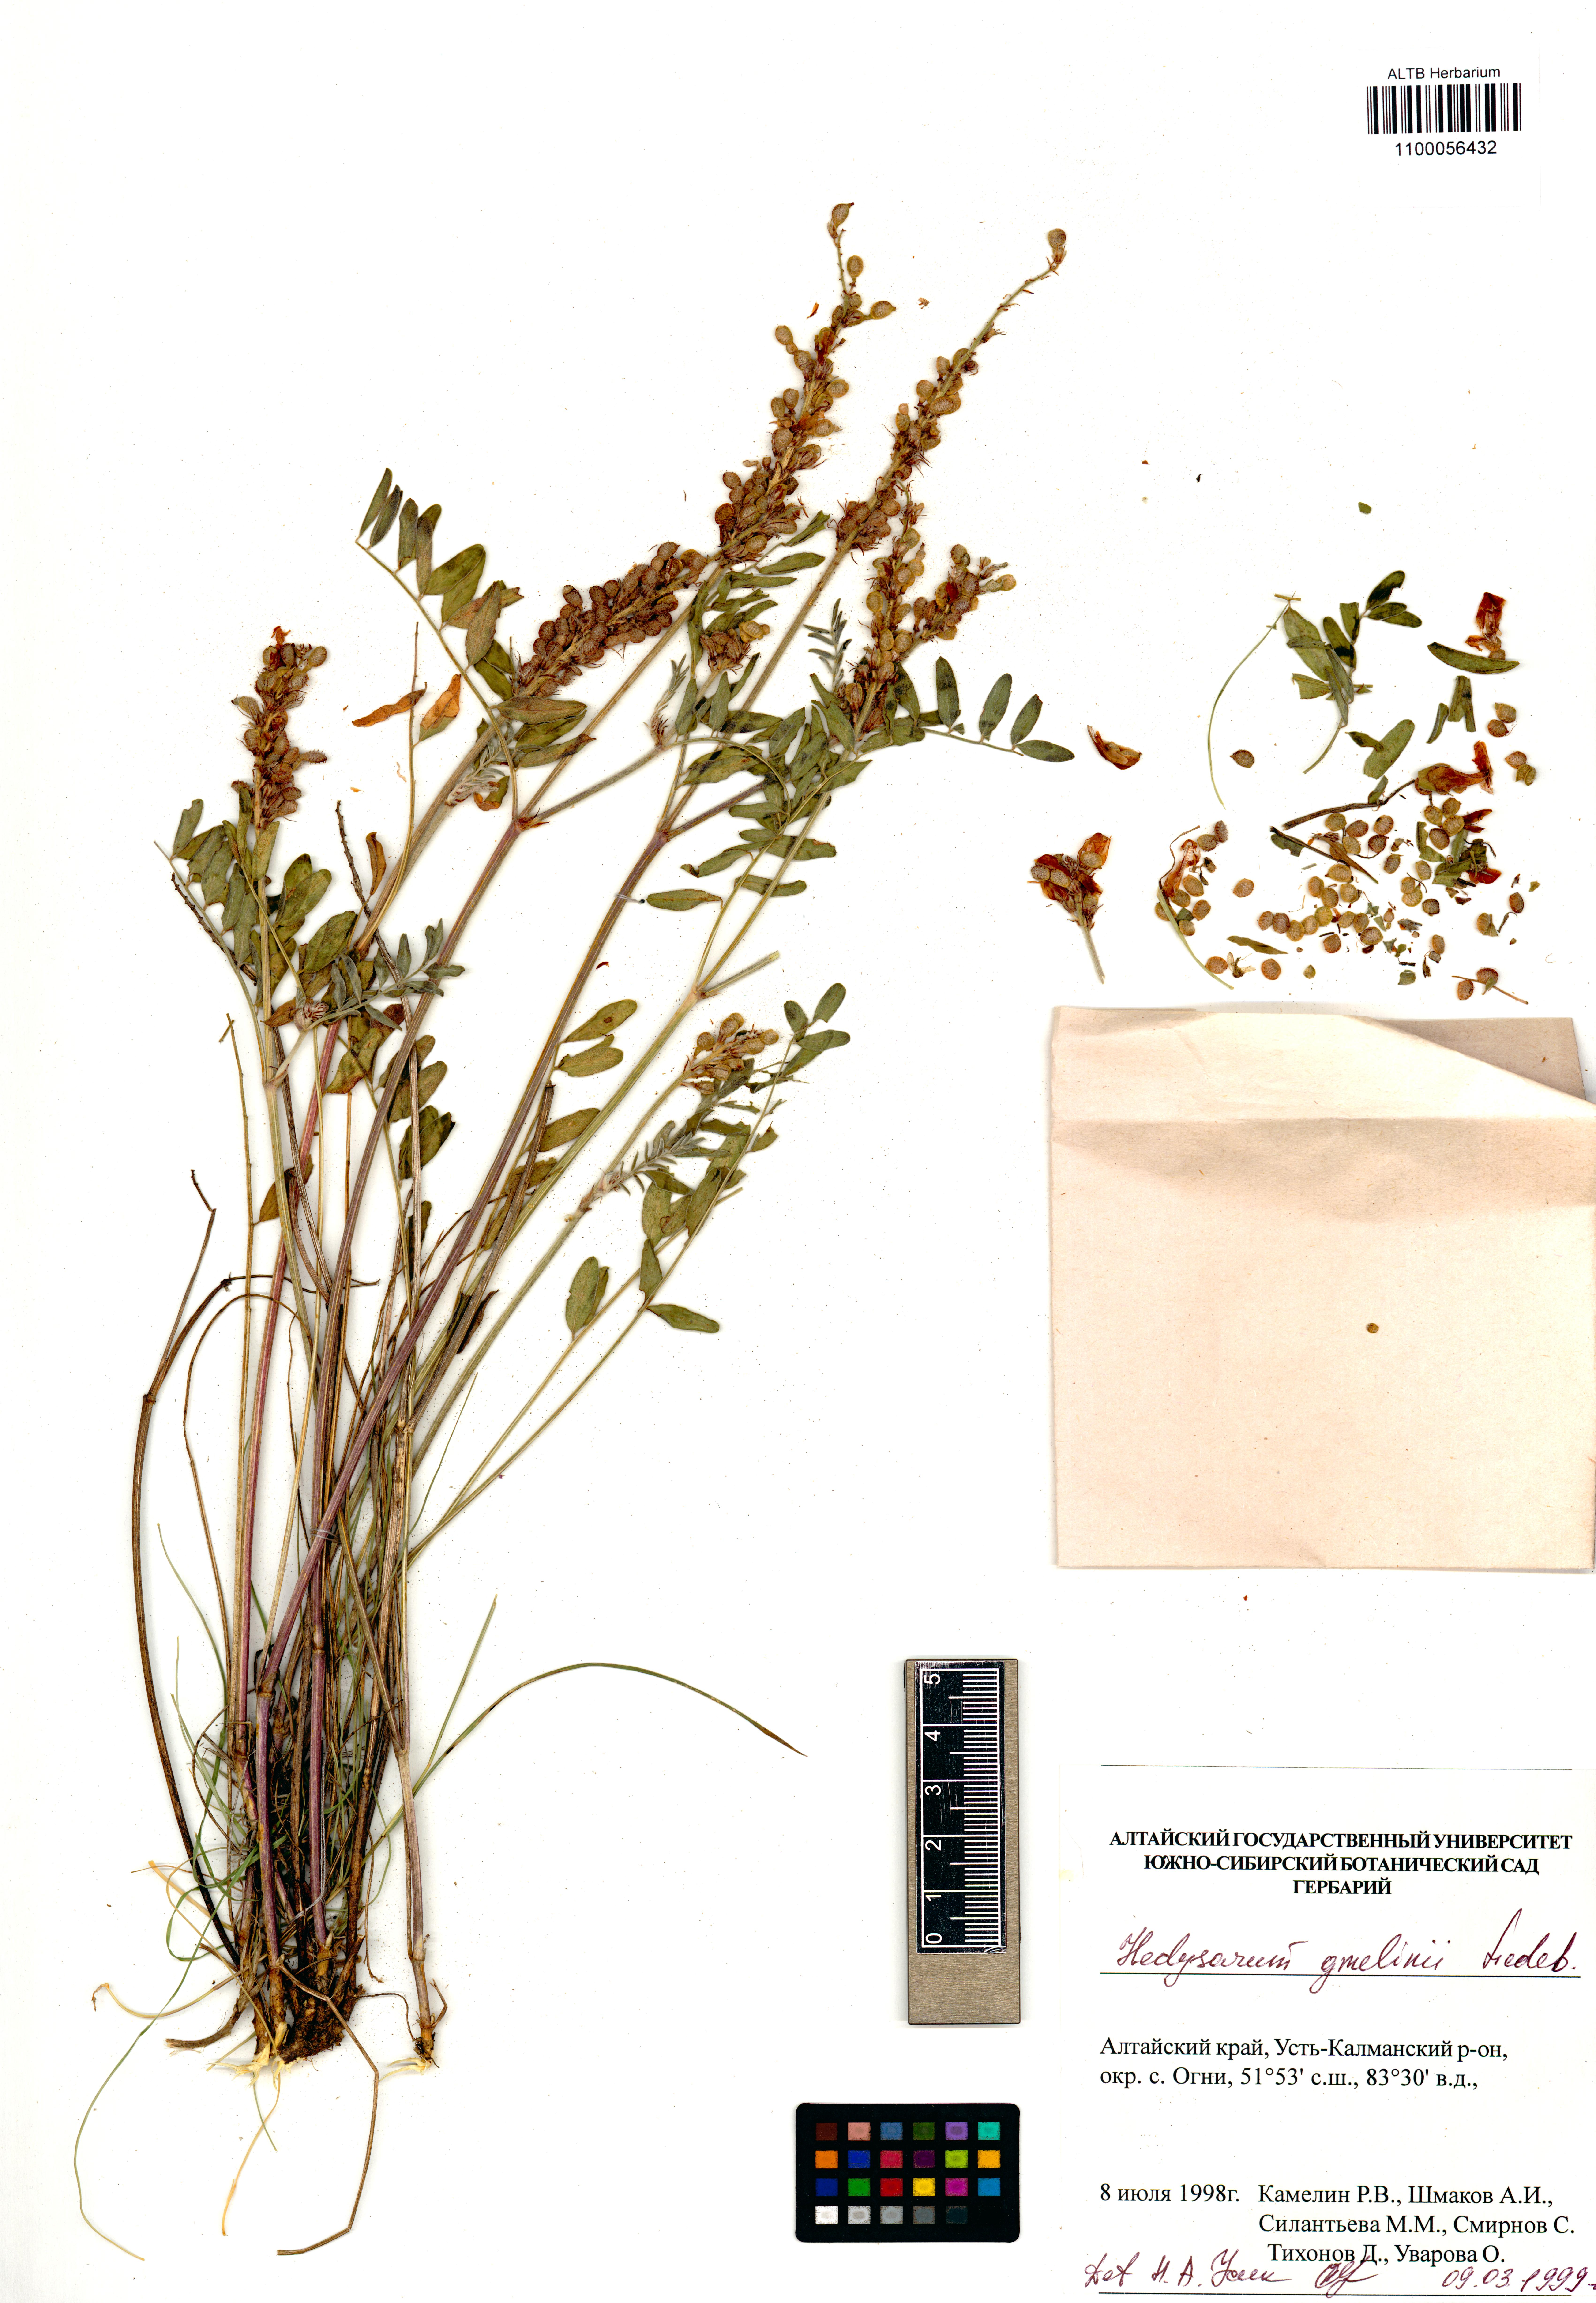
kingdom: Plantae
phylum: Tracheophyta
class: Magnoliopsida
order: Fabales
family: Fabaceae
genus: Hedysarum
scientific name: Hedysarum gmelinii
